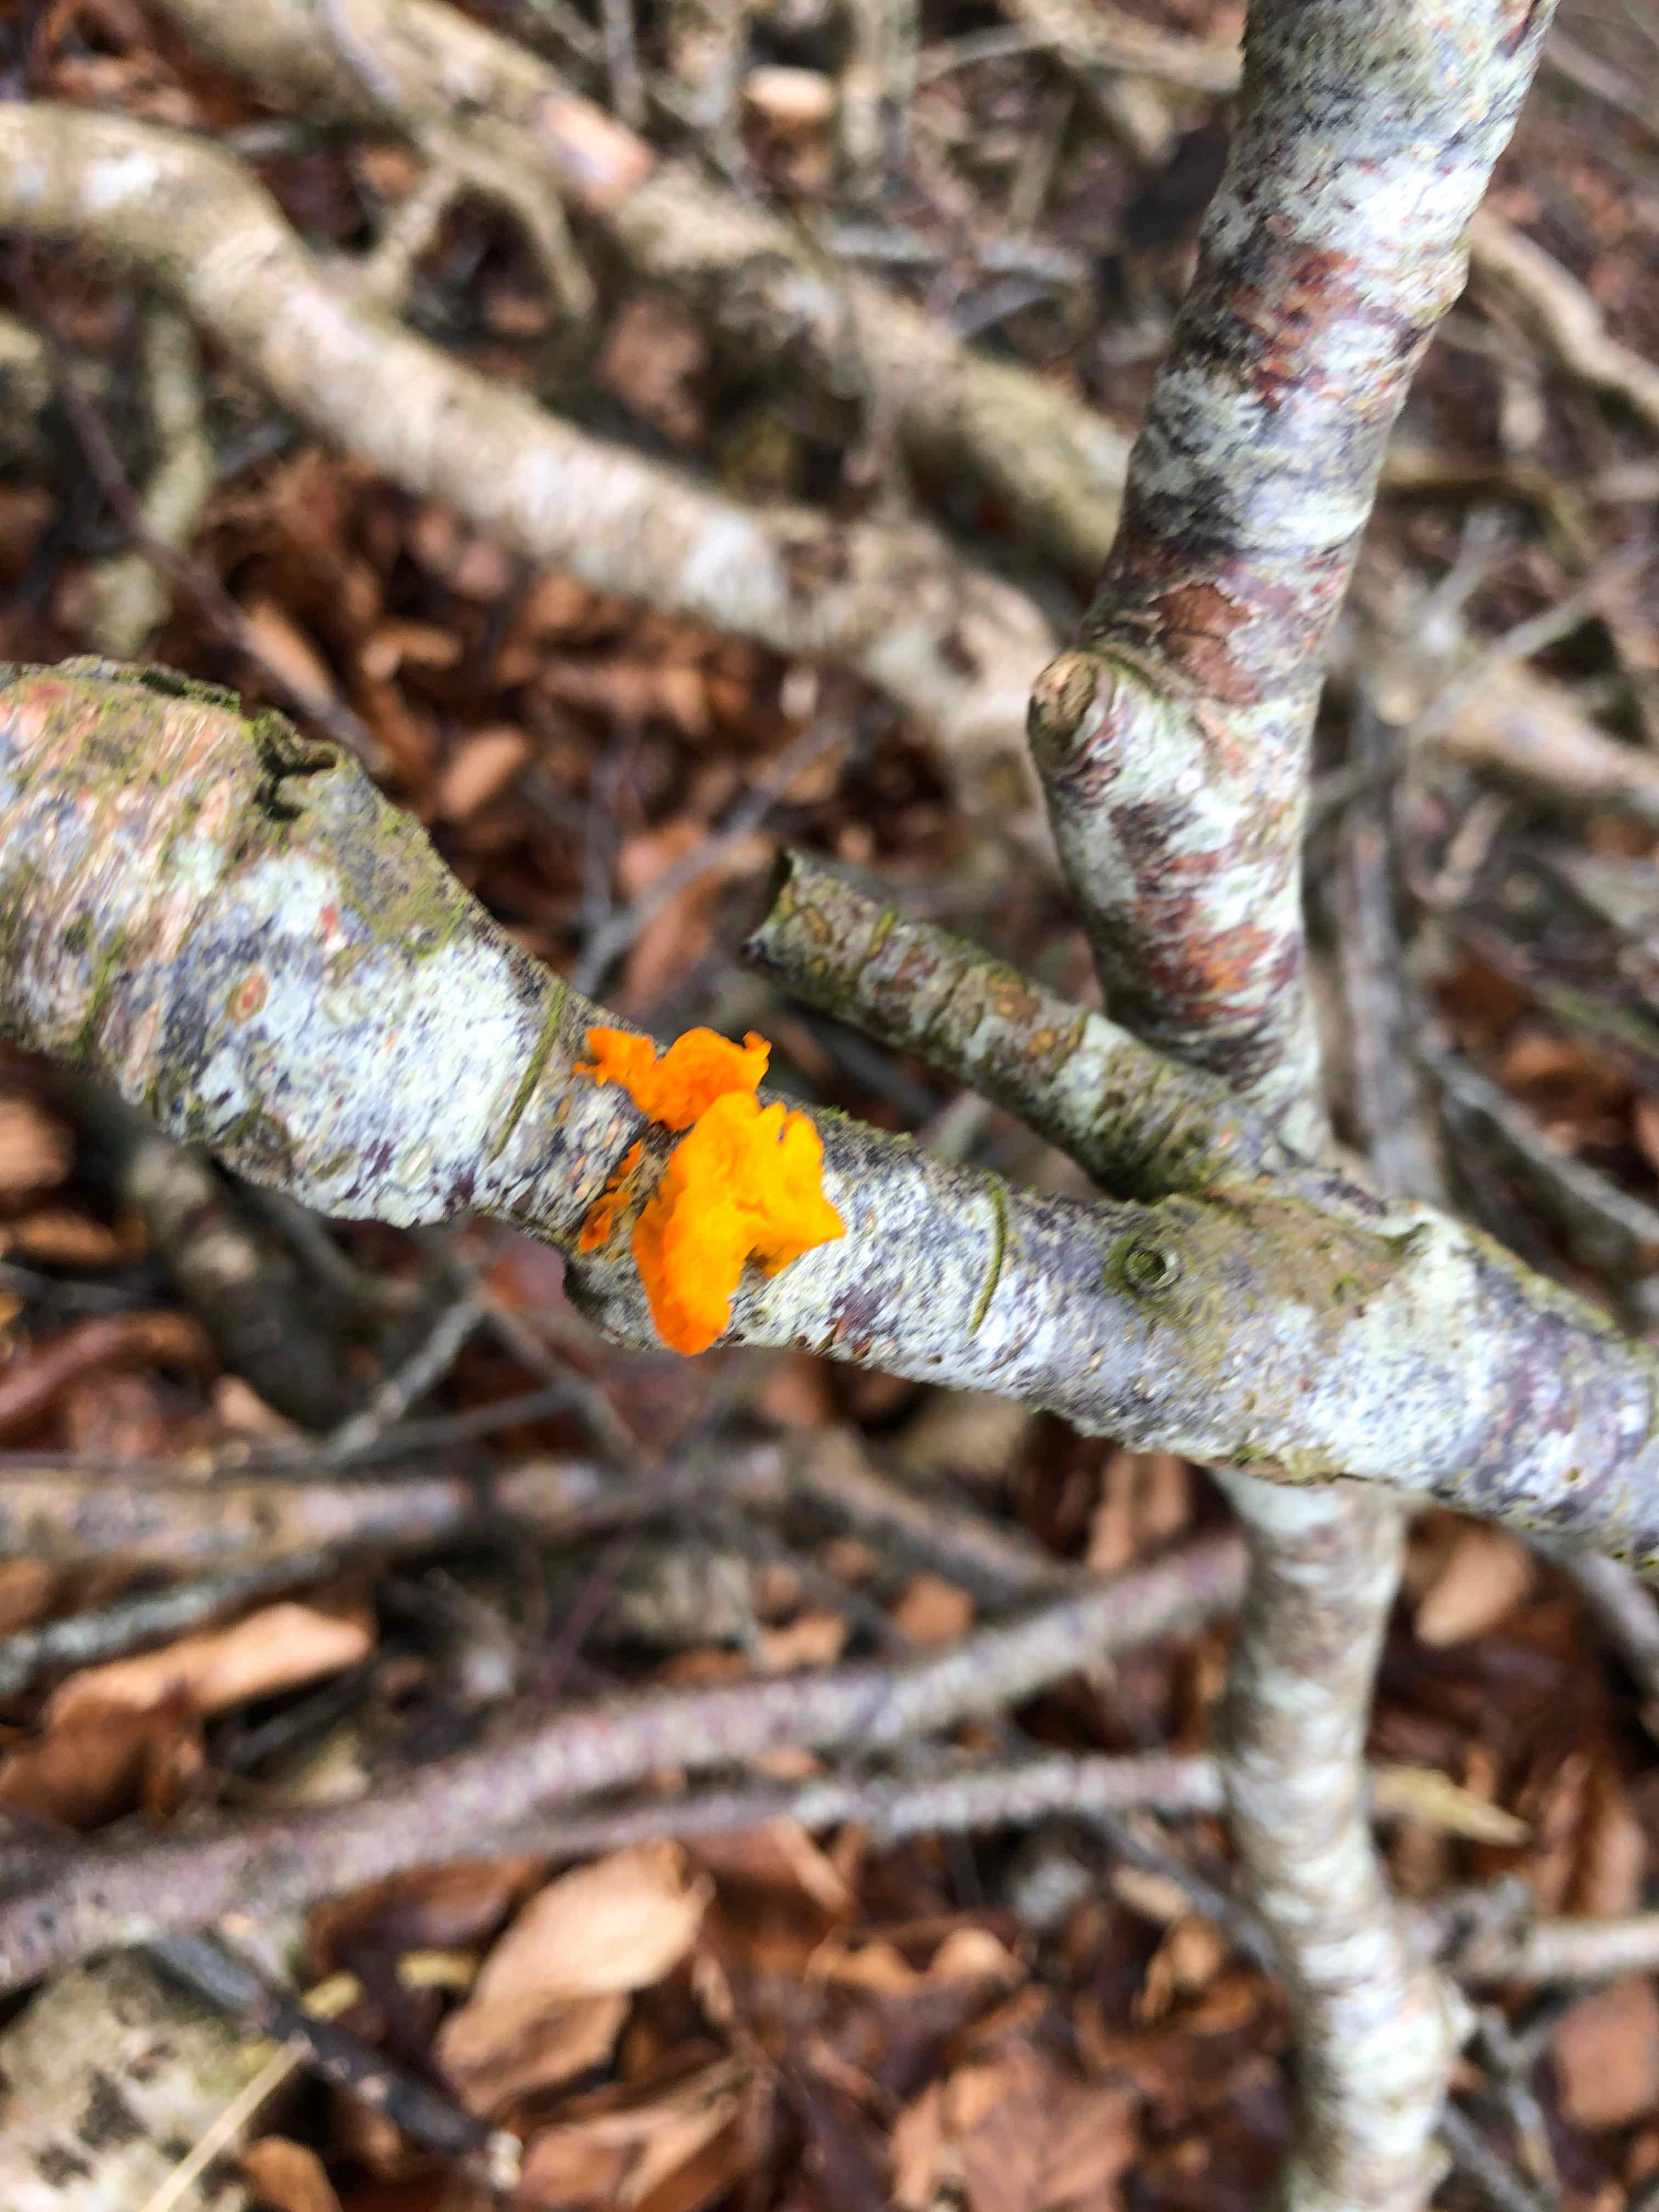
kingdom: Fungi
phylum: Basidiomycota
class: Tremellomycetes
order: Tremellales
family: Tremellaceae
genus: Tremella
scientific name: Tremella mesenterica
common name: gul bævresvamp
